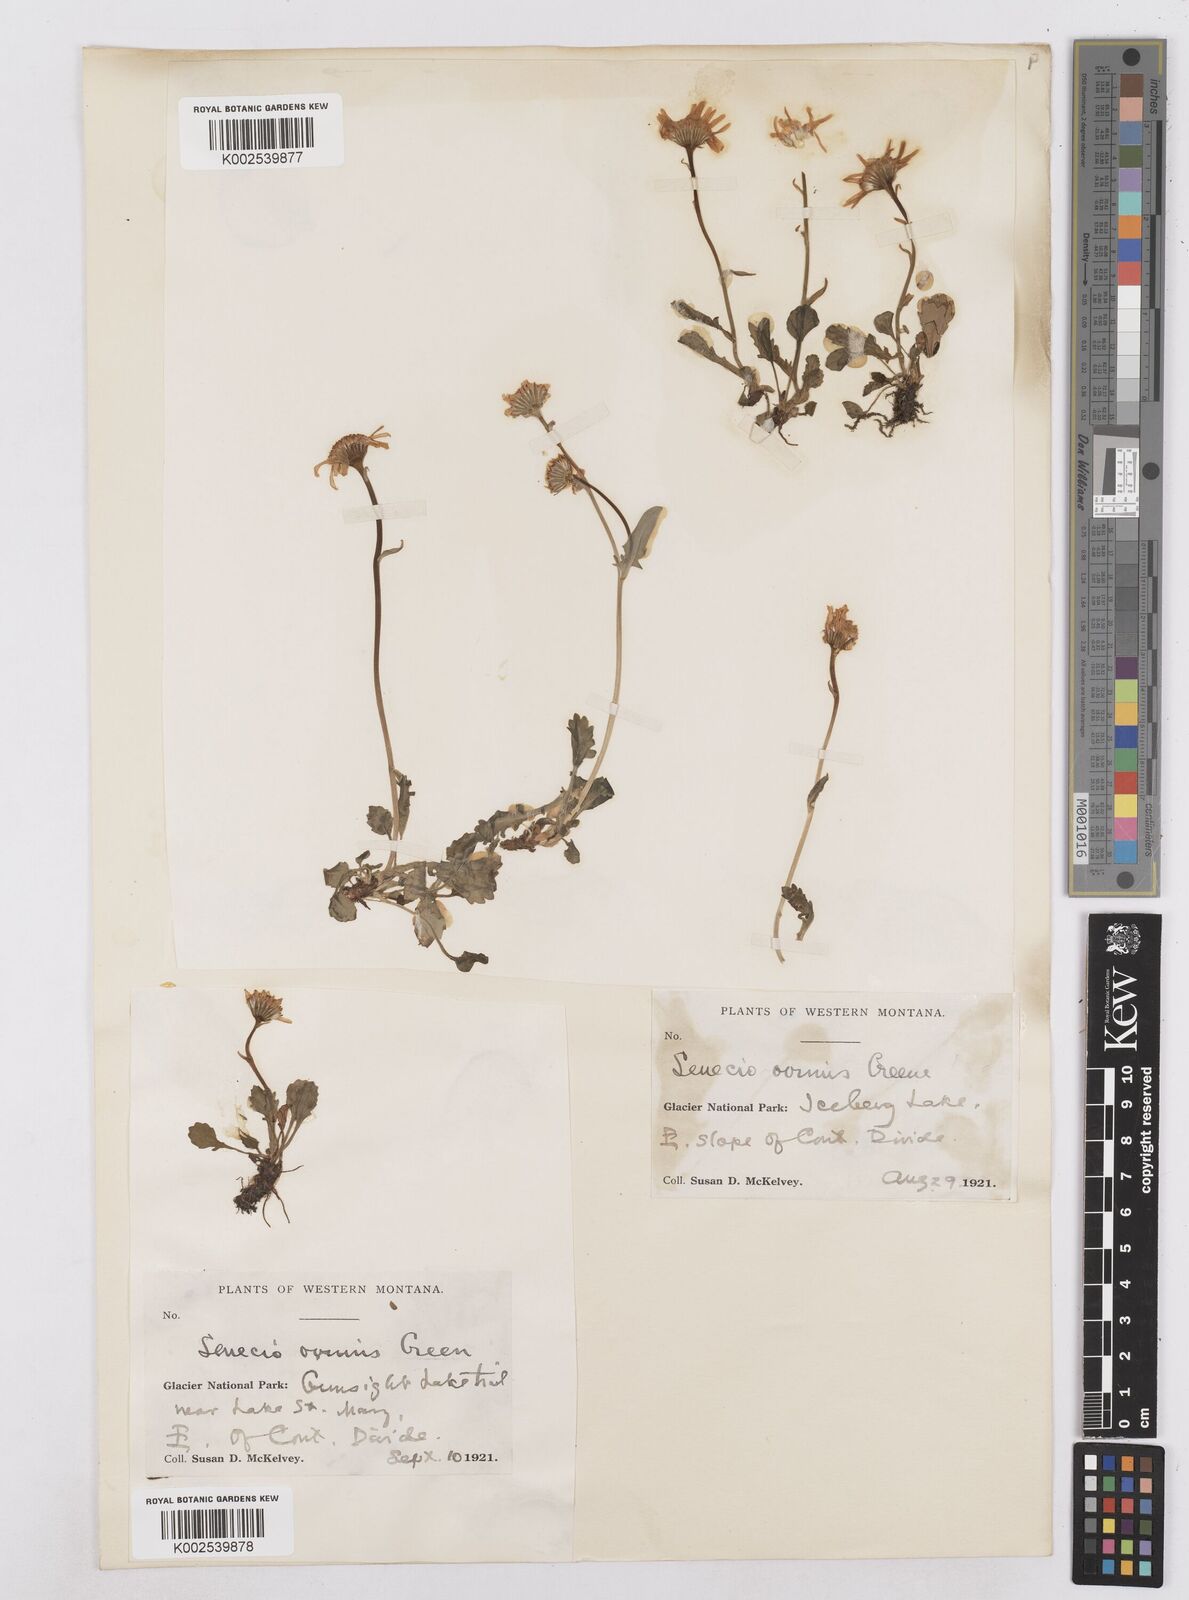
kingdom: Plantae
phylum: Tracheophyta
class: Magnoliopsida
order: Asterales
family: Asteraceae
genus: Packera
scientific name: Packera cymbalaria
